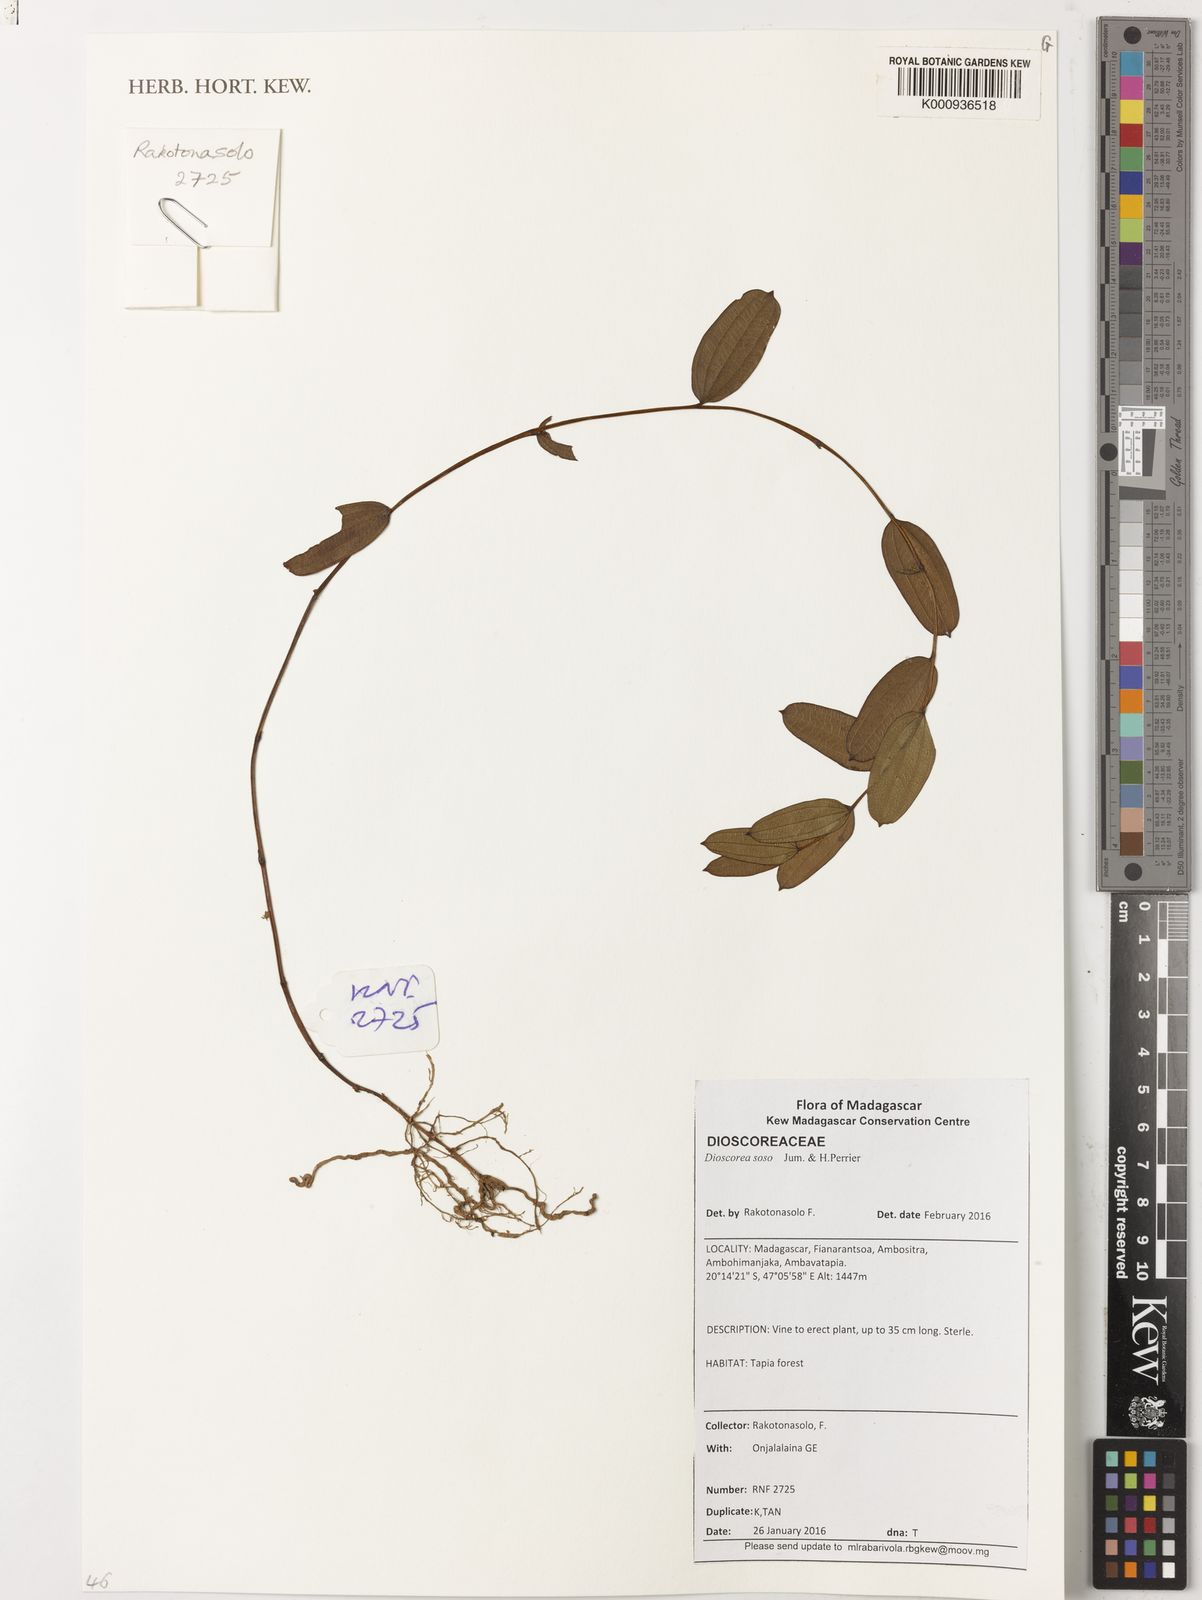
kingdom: Plantae
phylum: Tracheophyta
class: Liliopsida
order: Dioscoreales
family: Dioscoreaceae
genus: Dioscorea
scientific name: Dioscorea soso
